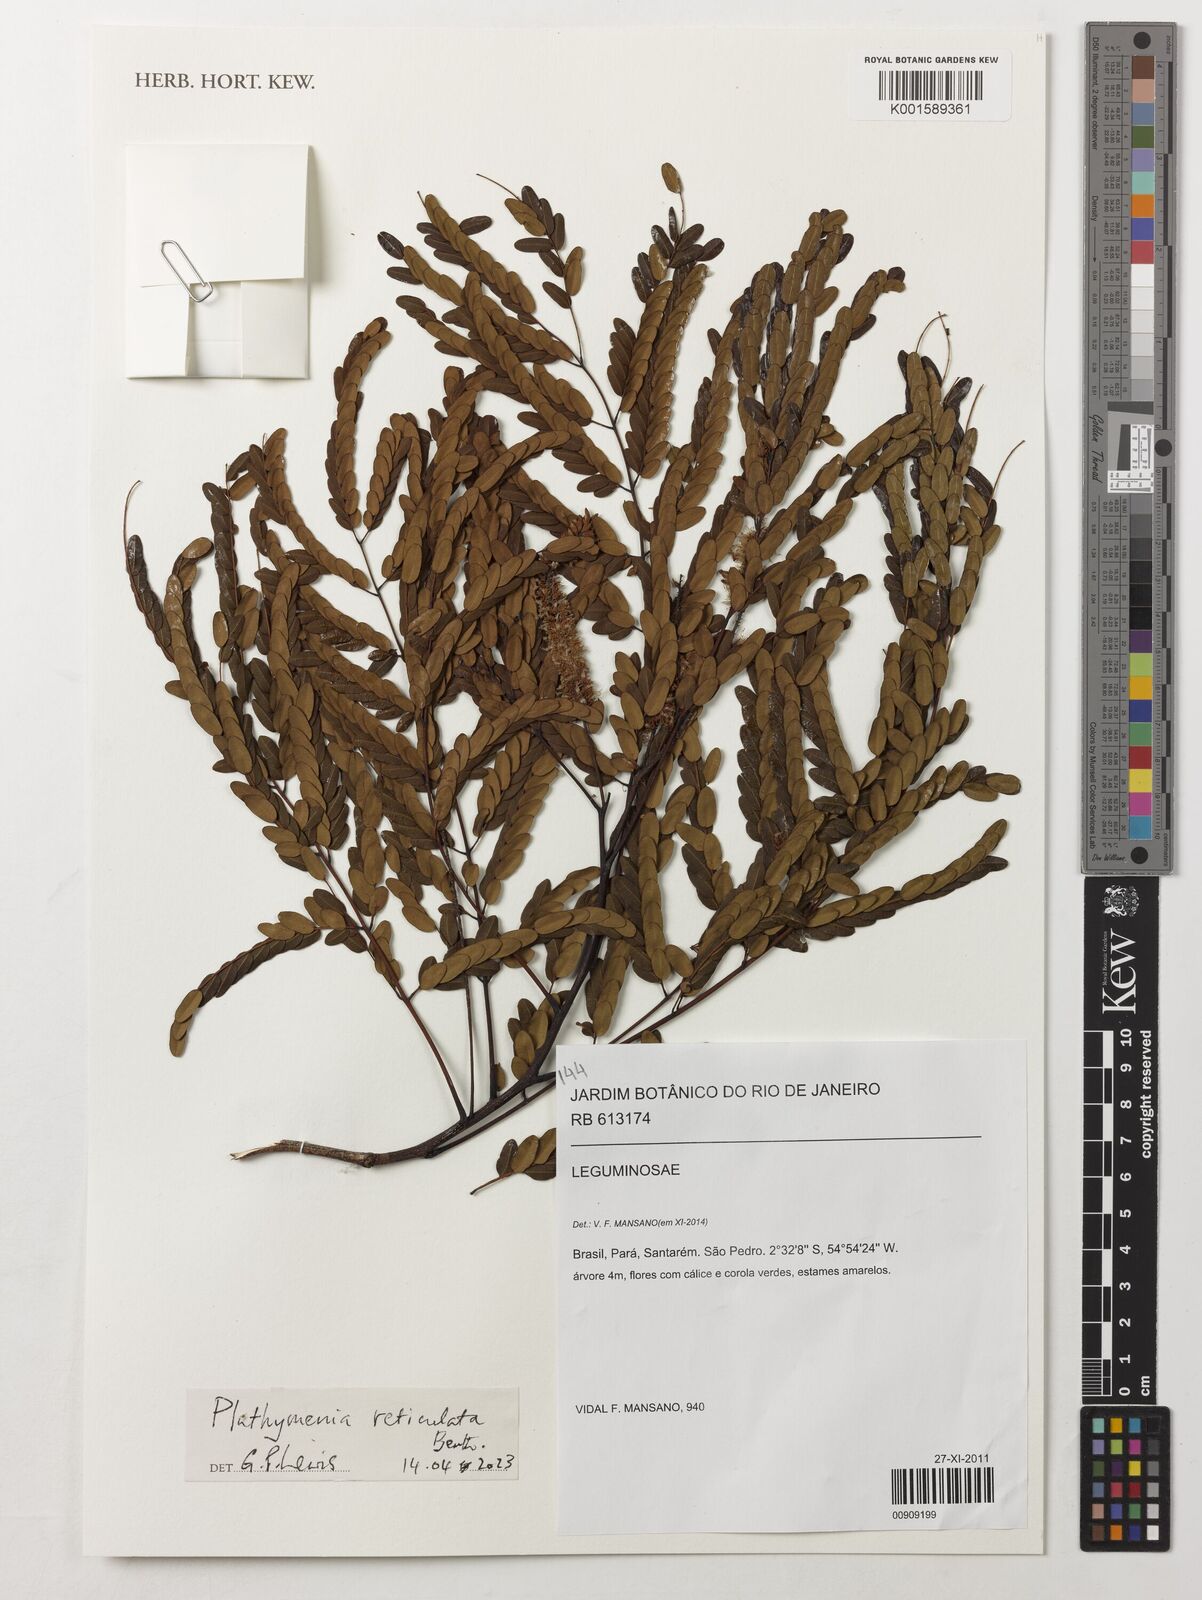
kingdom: Plantae
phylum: Tracheophyta
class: Magnoliopsida
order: Fabales
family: Fabaceae
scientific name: Fabaceae
